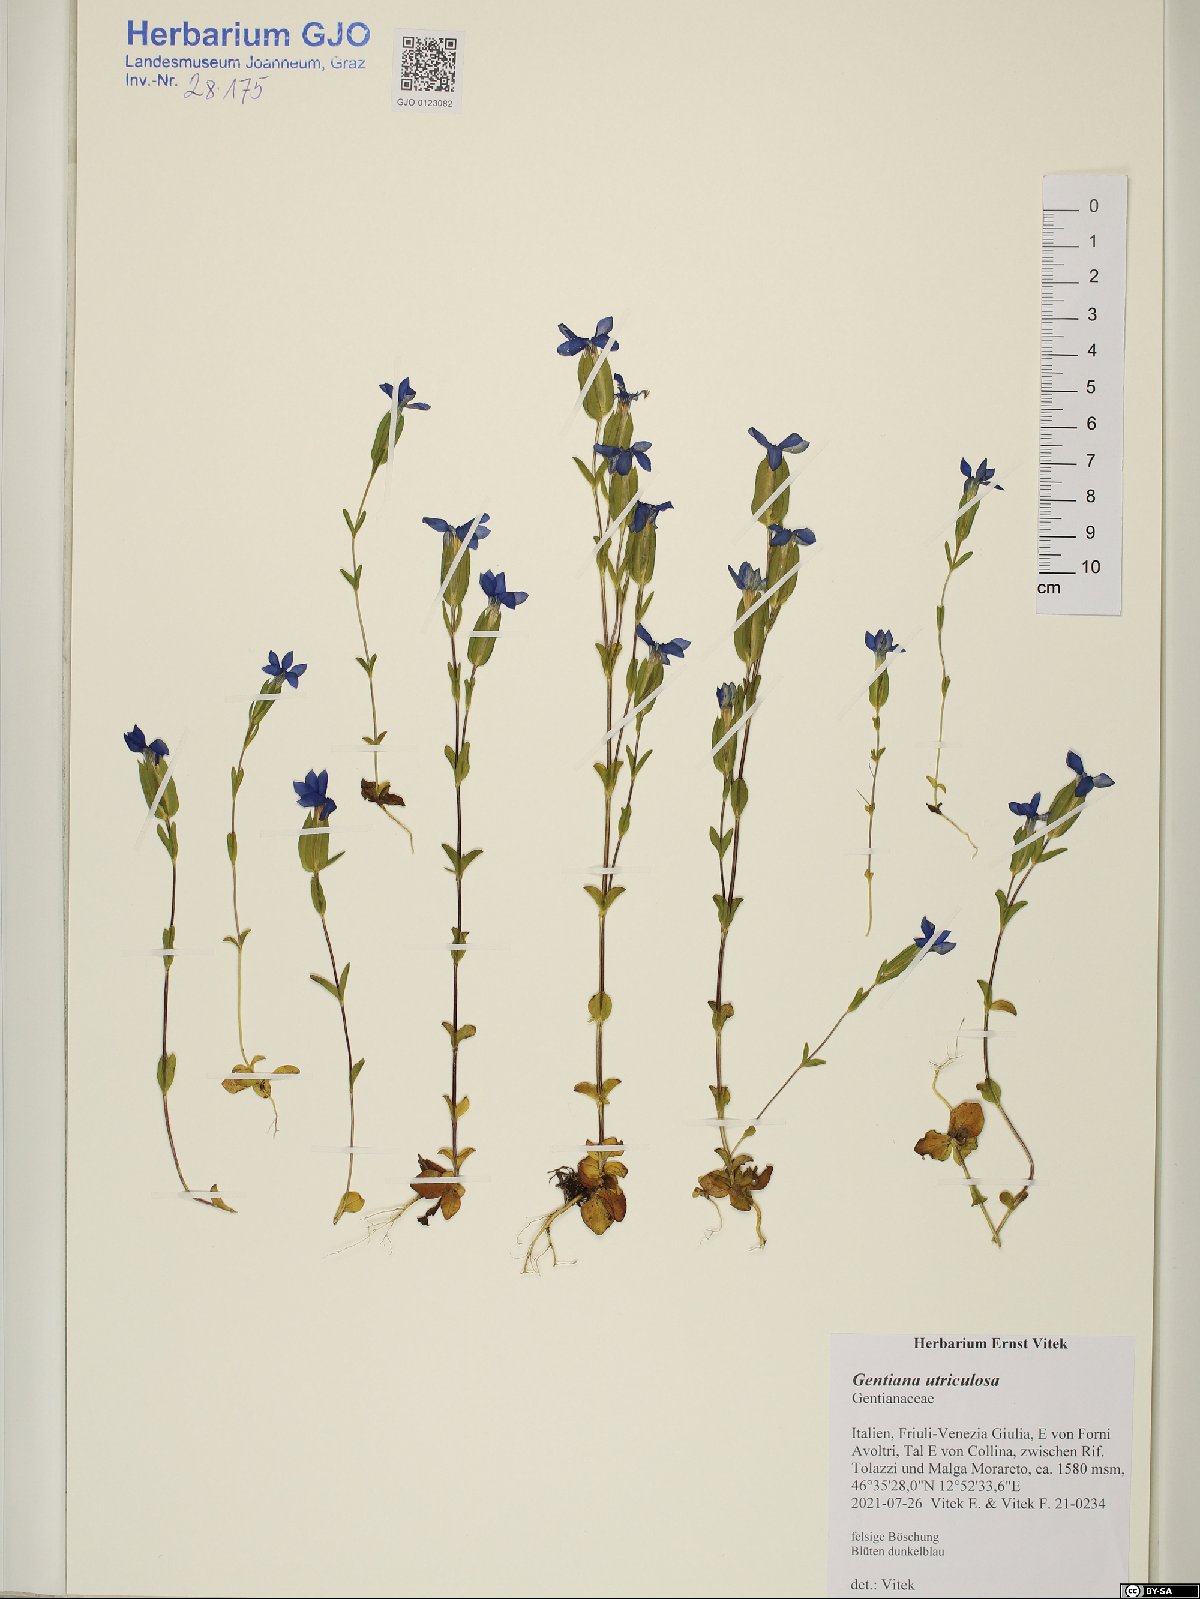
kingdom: Plantae
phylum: Tracheophyta
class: Magnoliopsida
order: Gentianales
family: Gentianaceae
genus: Gentiana
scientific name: Gentiana utriculosa
